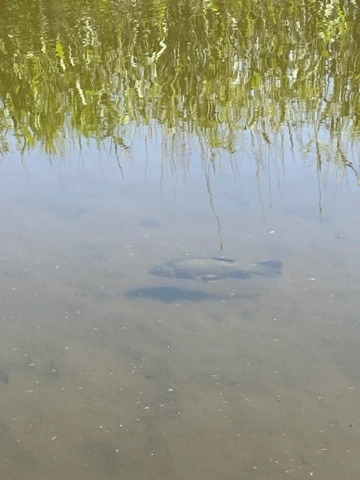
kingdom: Animalia
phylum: Chordata
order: Cypriniformes
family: Cyprinidae
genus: Tinca
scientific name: Tinca tinca
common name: Suder
